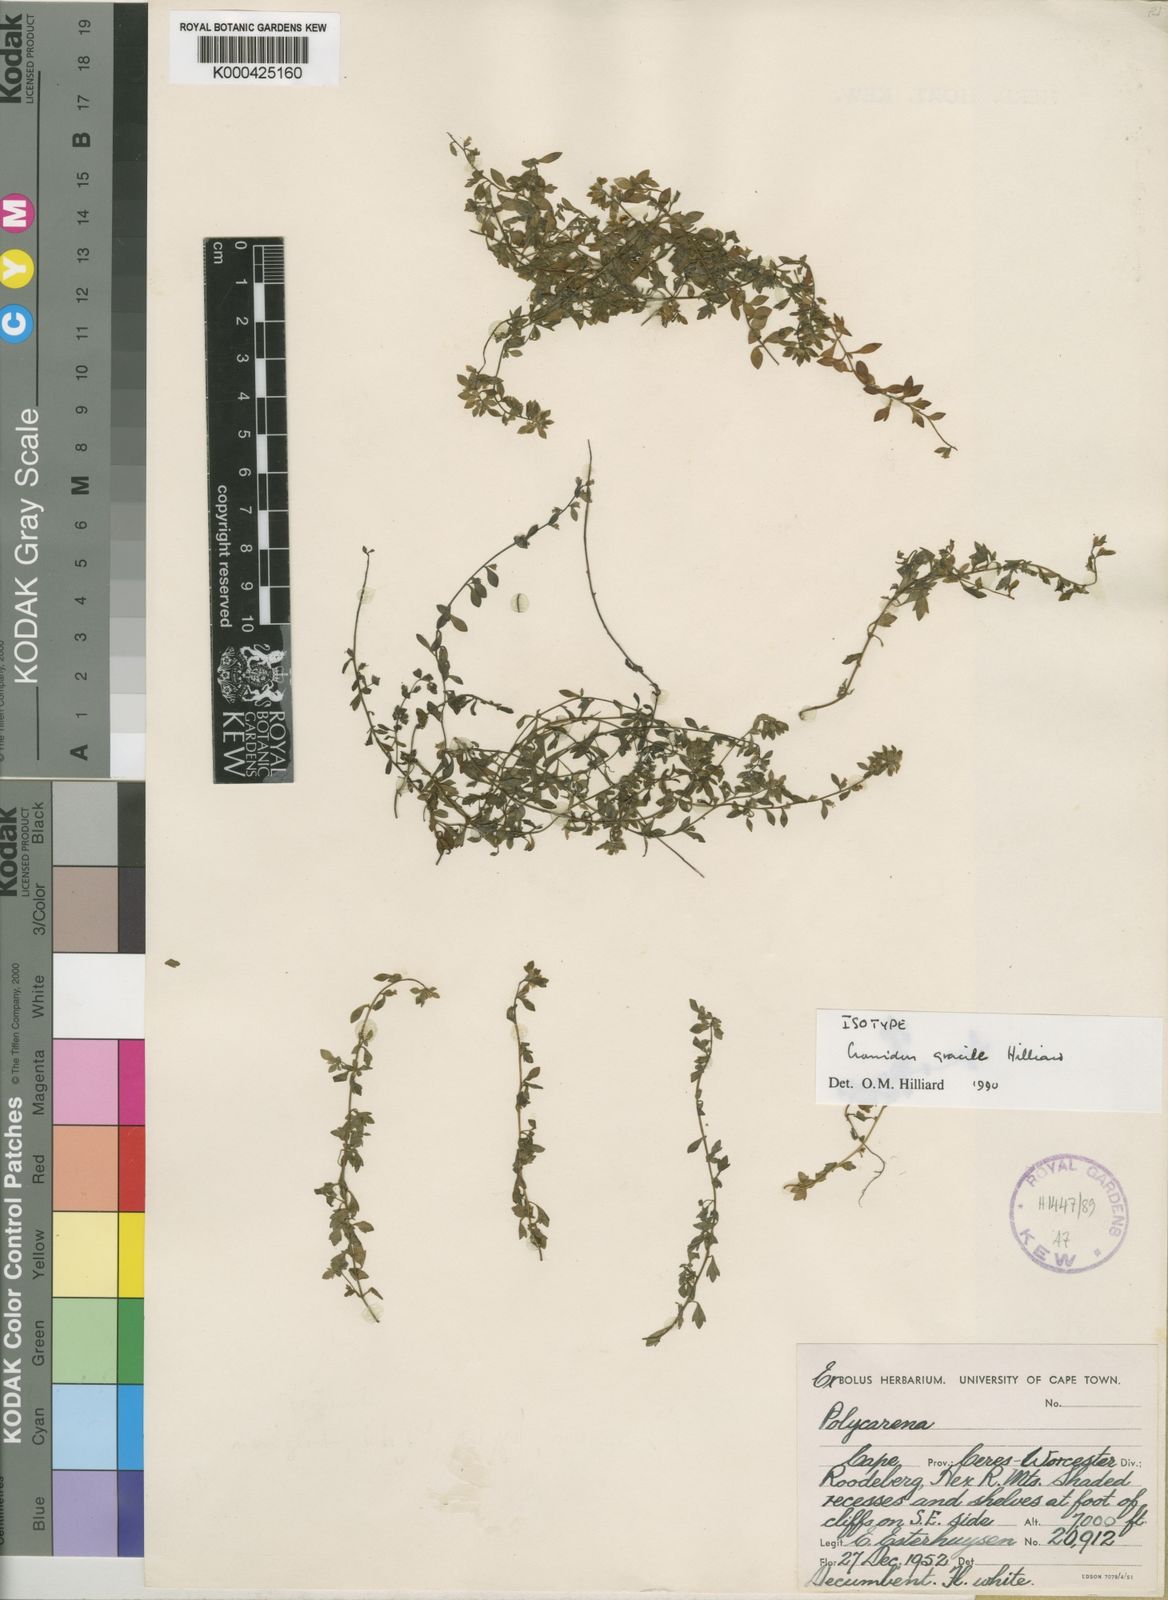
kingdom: Plantae
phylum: Tracheophyta
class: Magnoliopsida
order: Lamiales
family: Scrophulariaceae
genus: Cromidon
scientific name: Cromidon gracile
